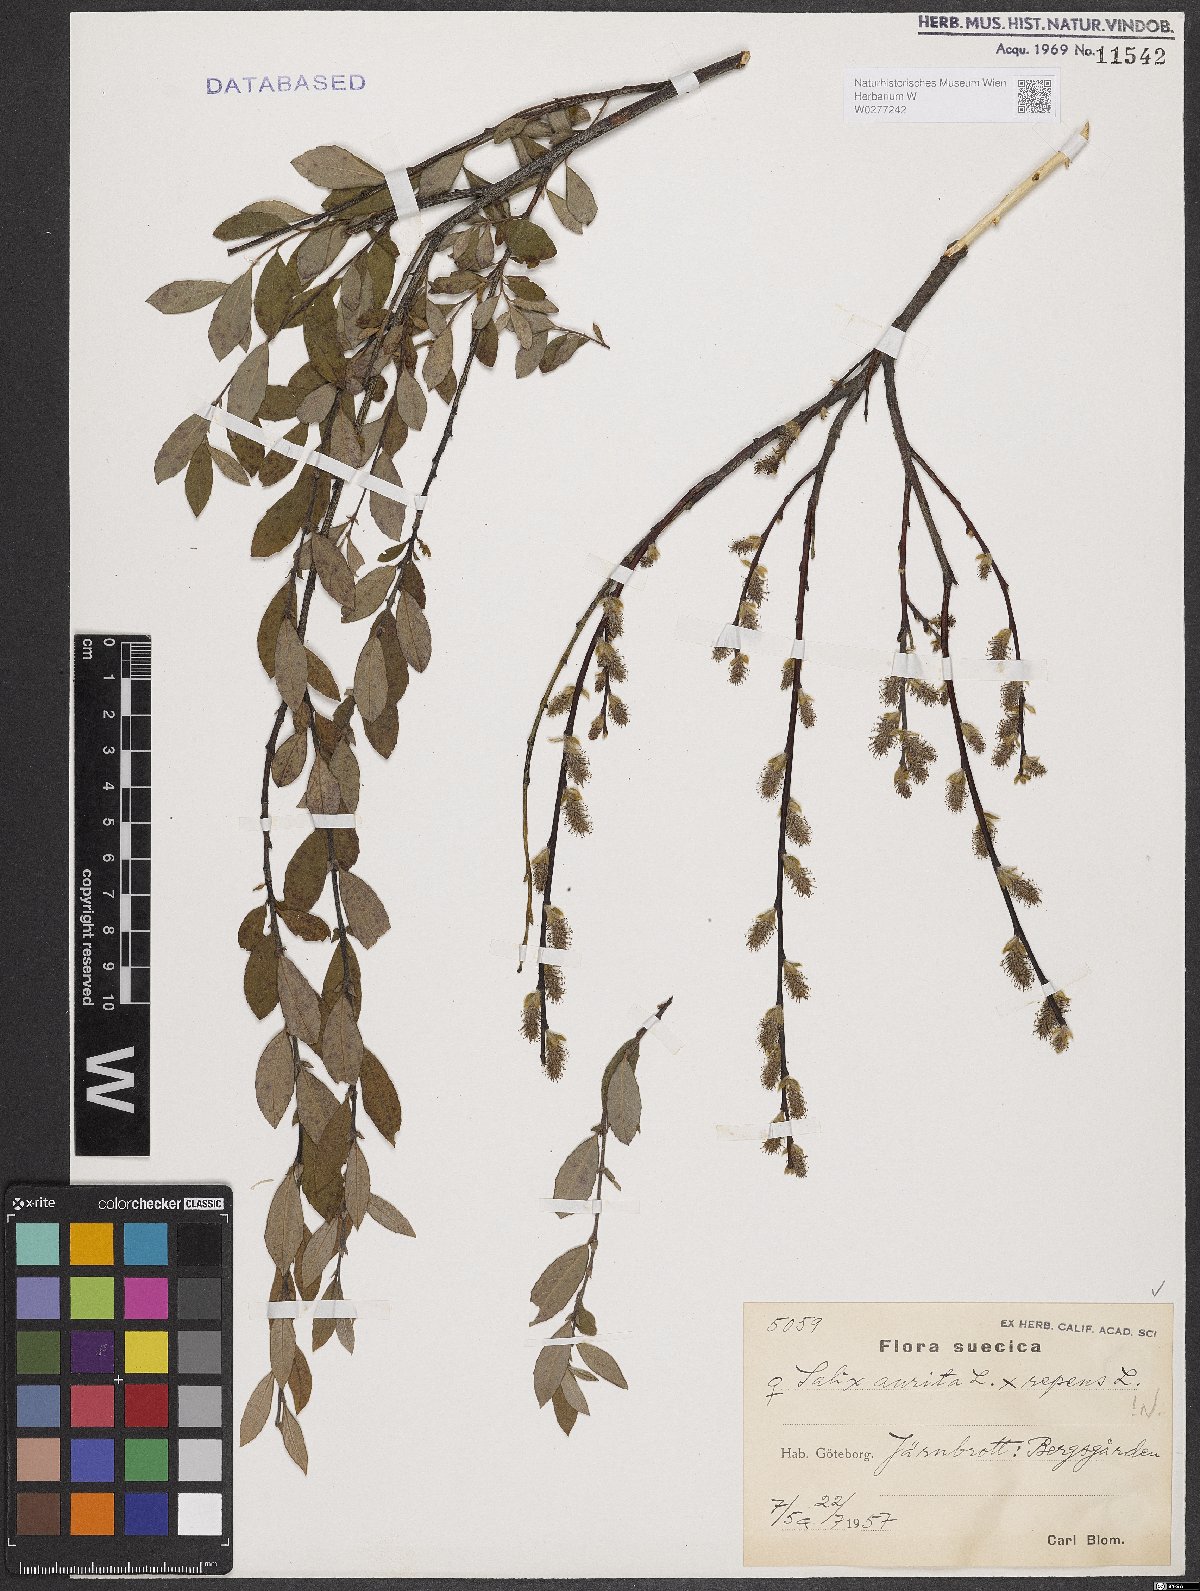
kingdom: Plantae
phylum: Tracheophyta
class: Magnoliopsida
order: Malpighiales
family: Salicaceae
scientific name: Salicaceae
